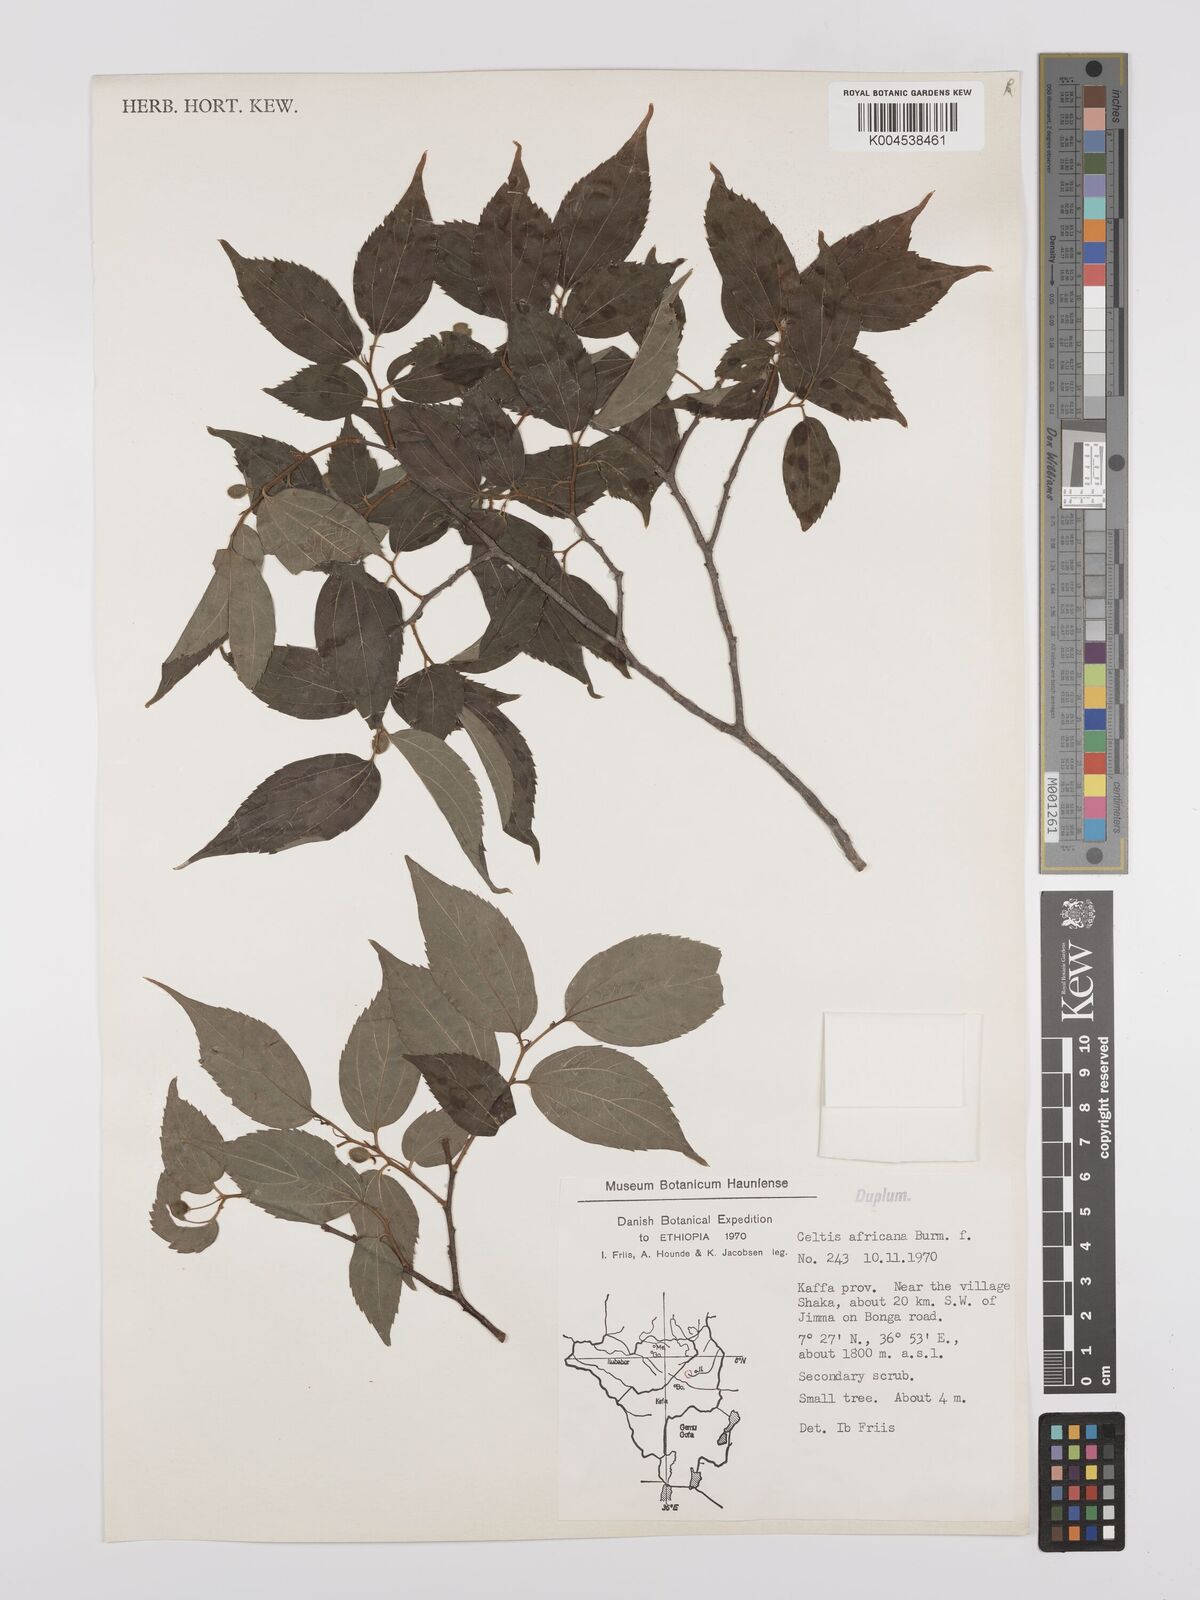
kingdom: Plantae
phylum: Tracheophyta
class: Magnoliopsida
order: Rosales
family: Cannabaceae
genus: Celtis
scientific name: Celtis africana
